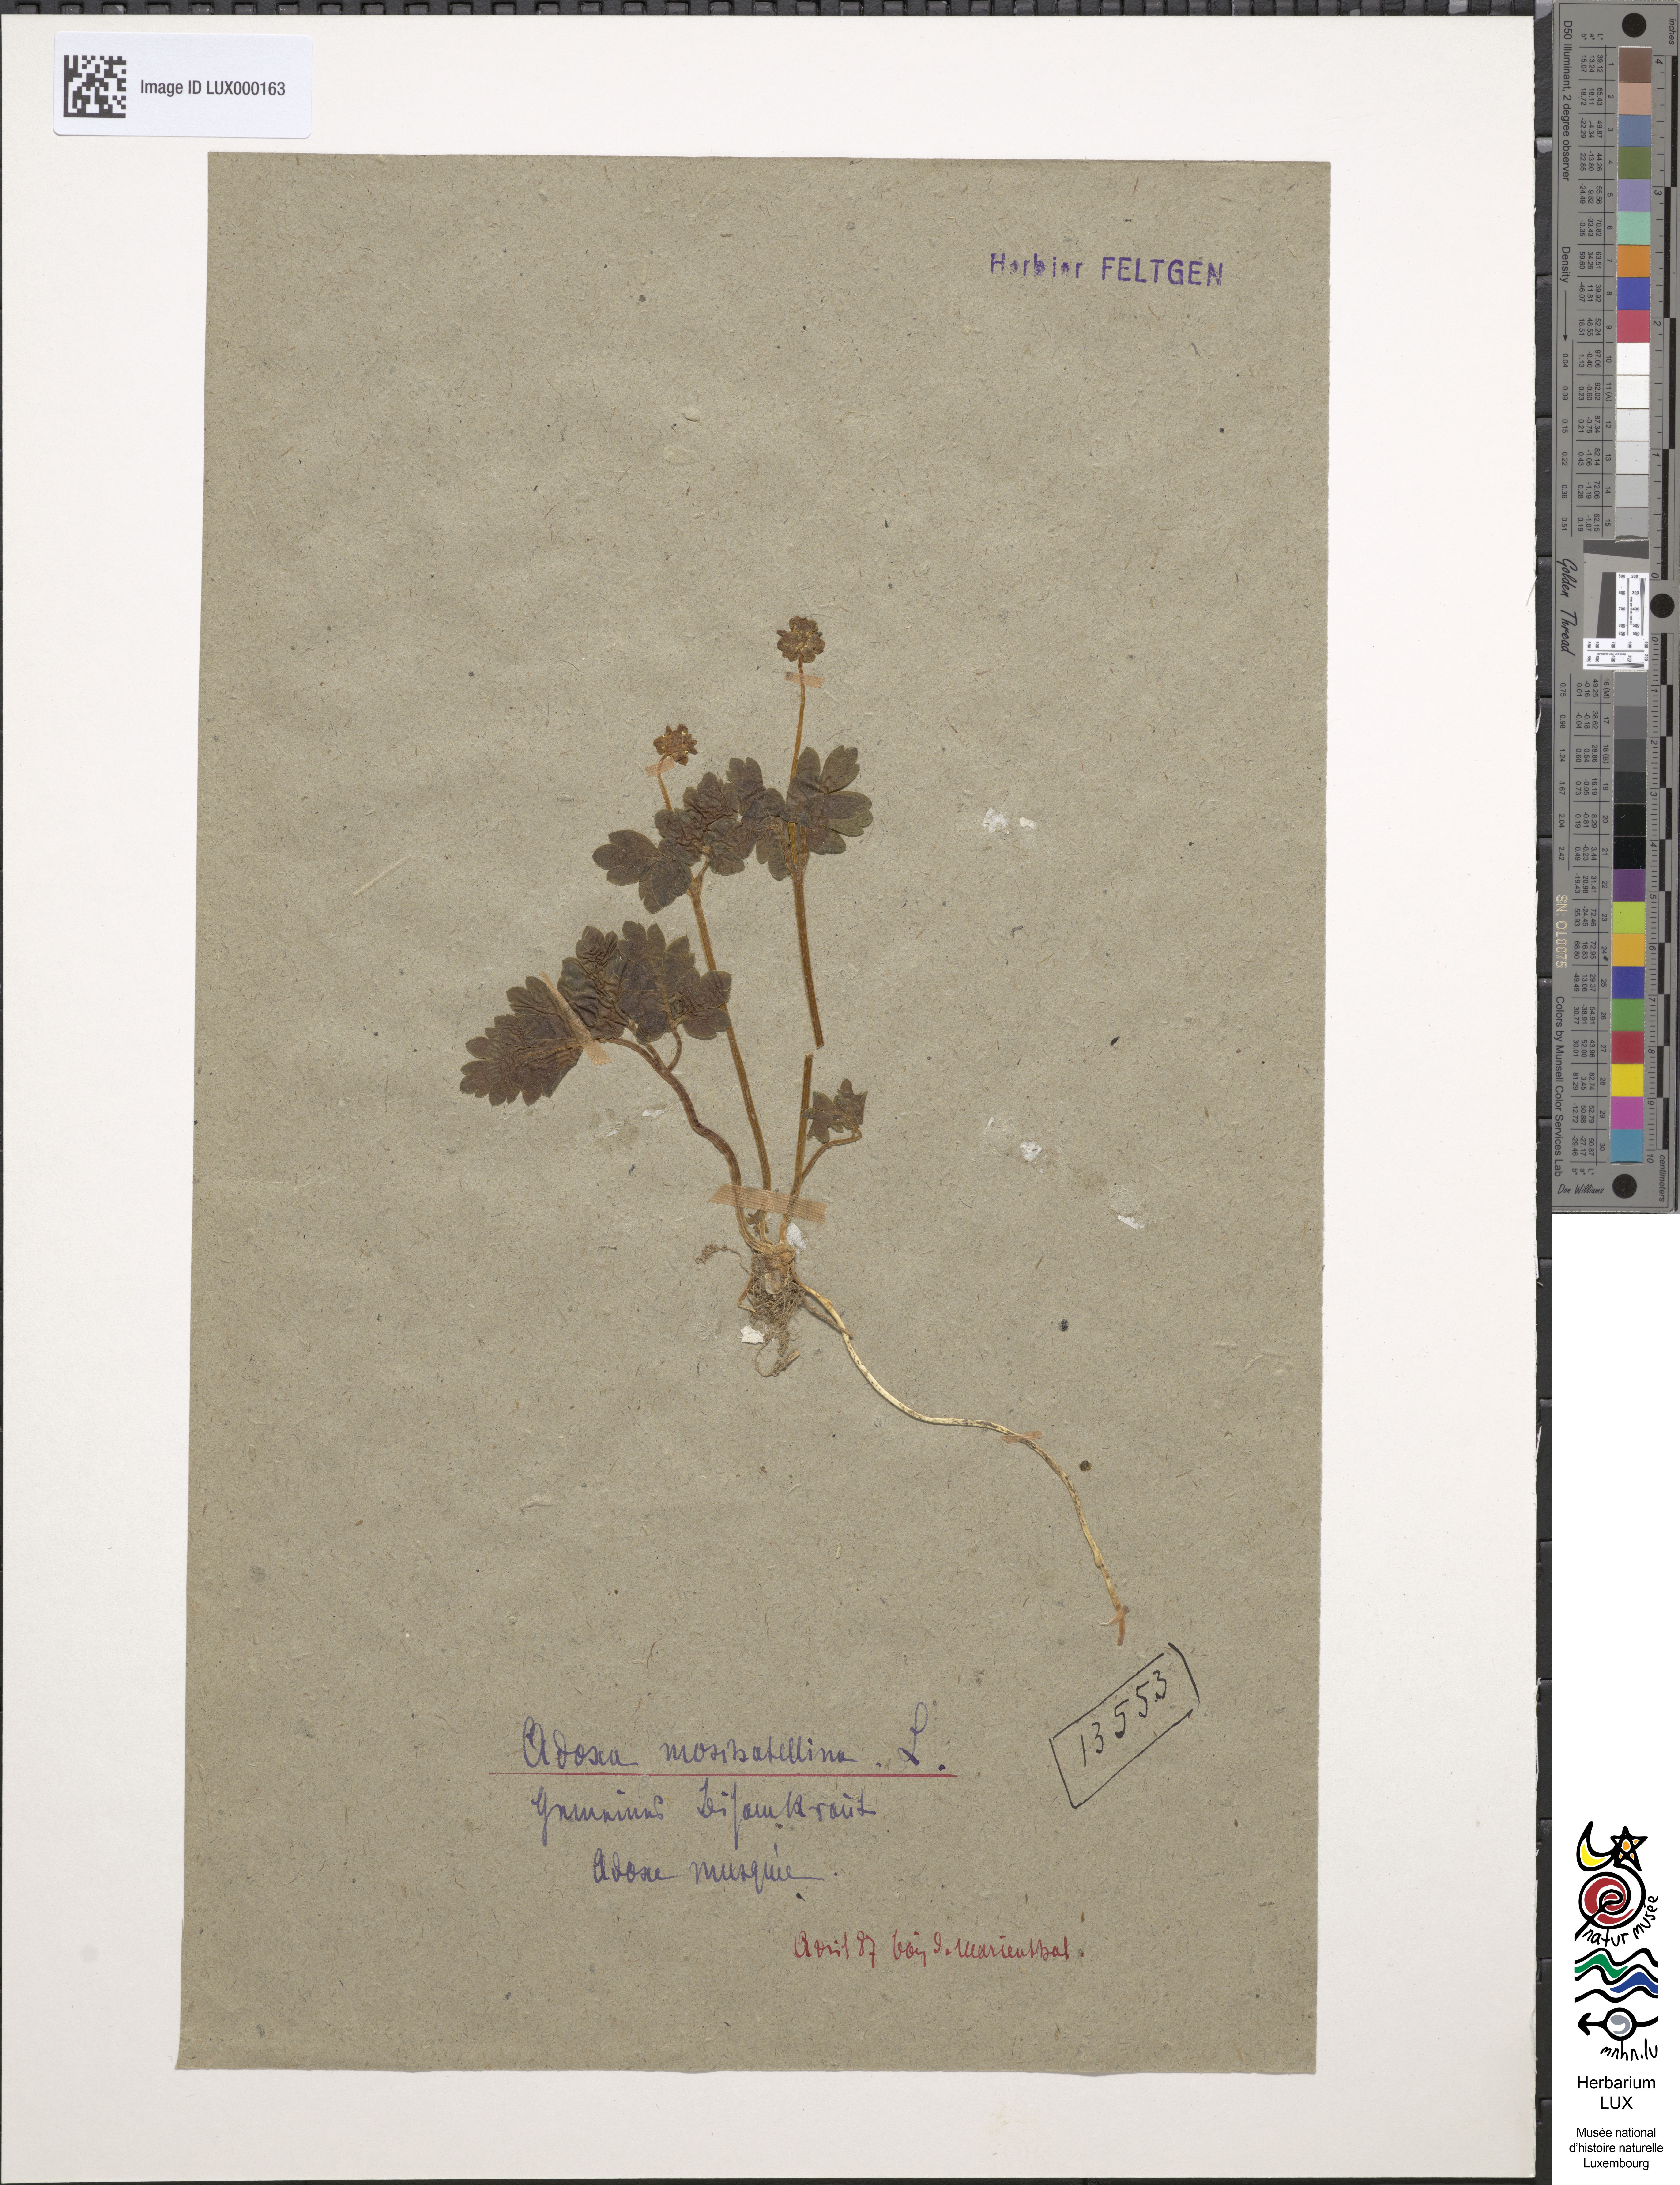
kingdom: Plantae
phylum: Tracheophyta
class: Magnoliopsida
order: Dipsacales
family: Viburnaceae
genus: Adoxa
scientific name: Adoxa moschatellina
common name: Moschatel
